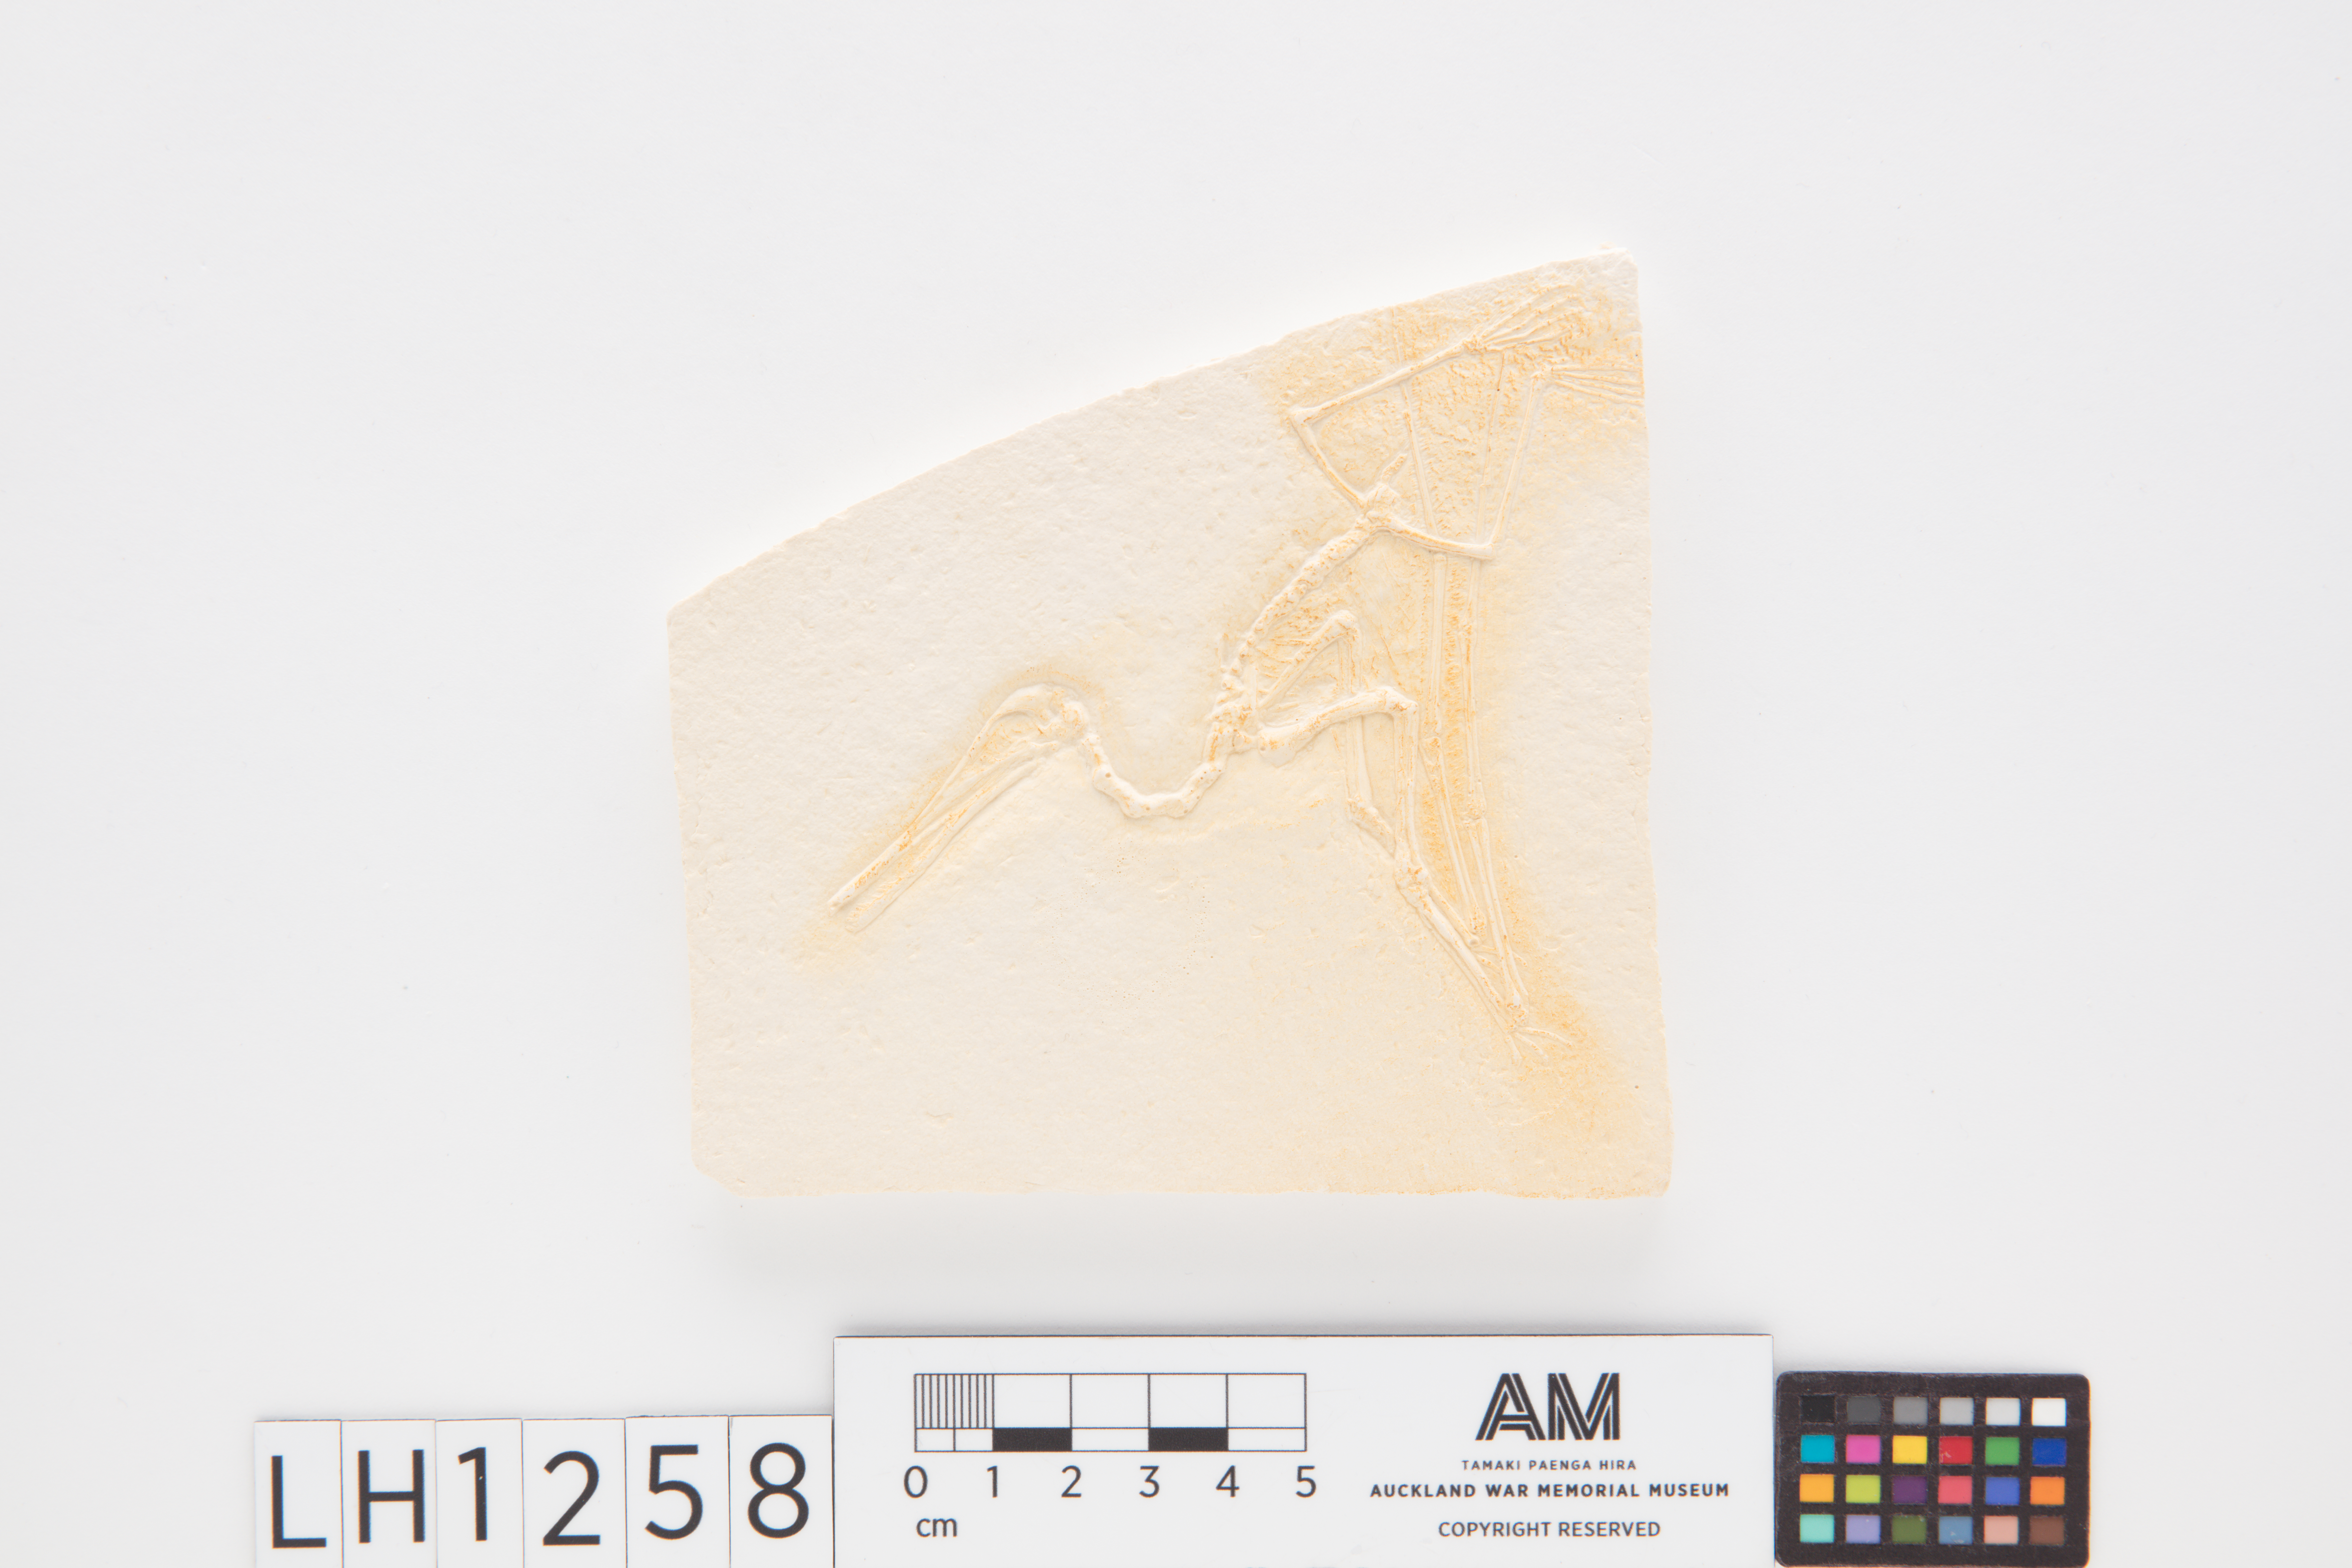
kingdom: Animalia
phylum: Chordata
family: Pterodactylidae
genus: Pterodactylus
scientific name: Pterodactylus
